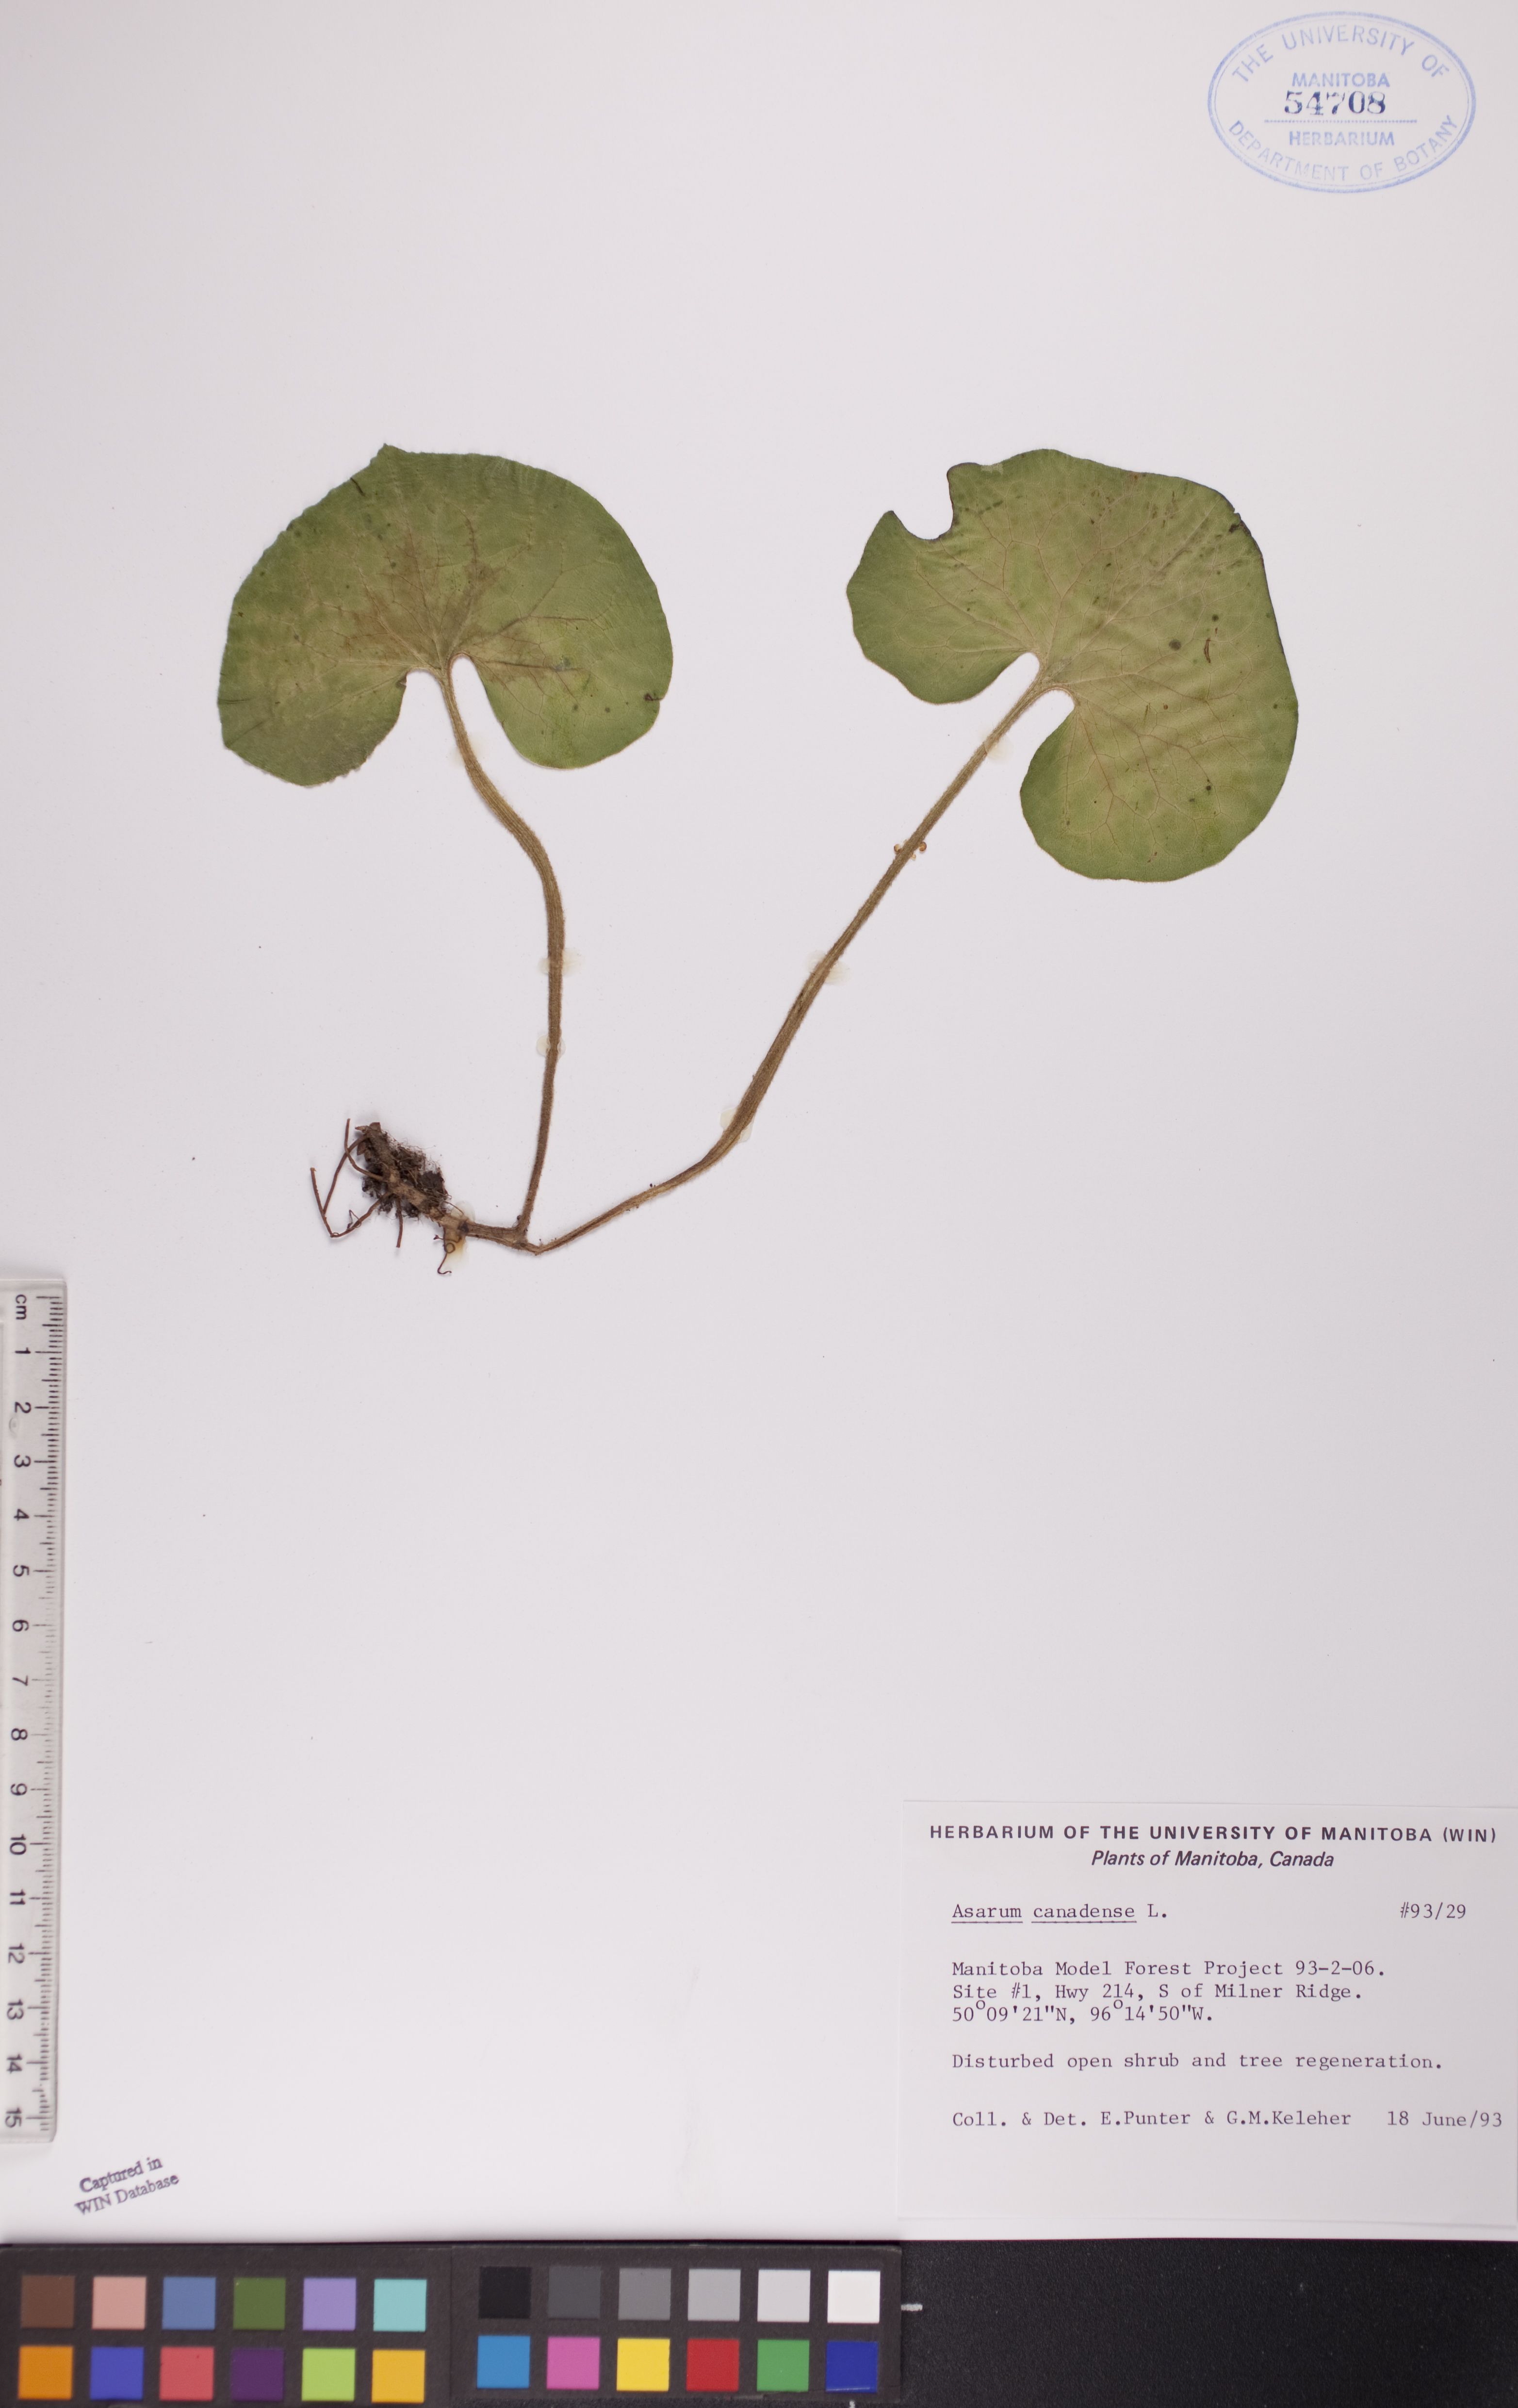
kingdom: Plantae
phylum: Tracheophyta
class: Magnoliopsida
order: Piperales
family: Aristolochiaceae
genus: Asarum
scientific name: Asarum canadense
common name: Wild ginger
